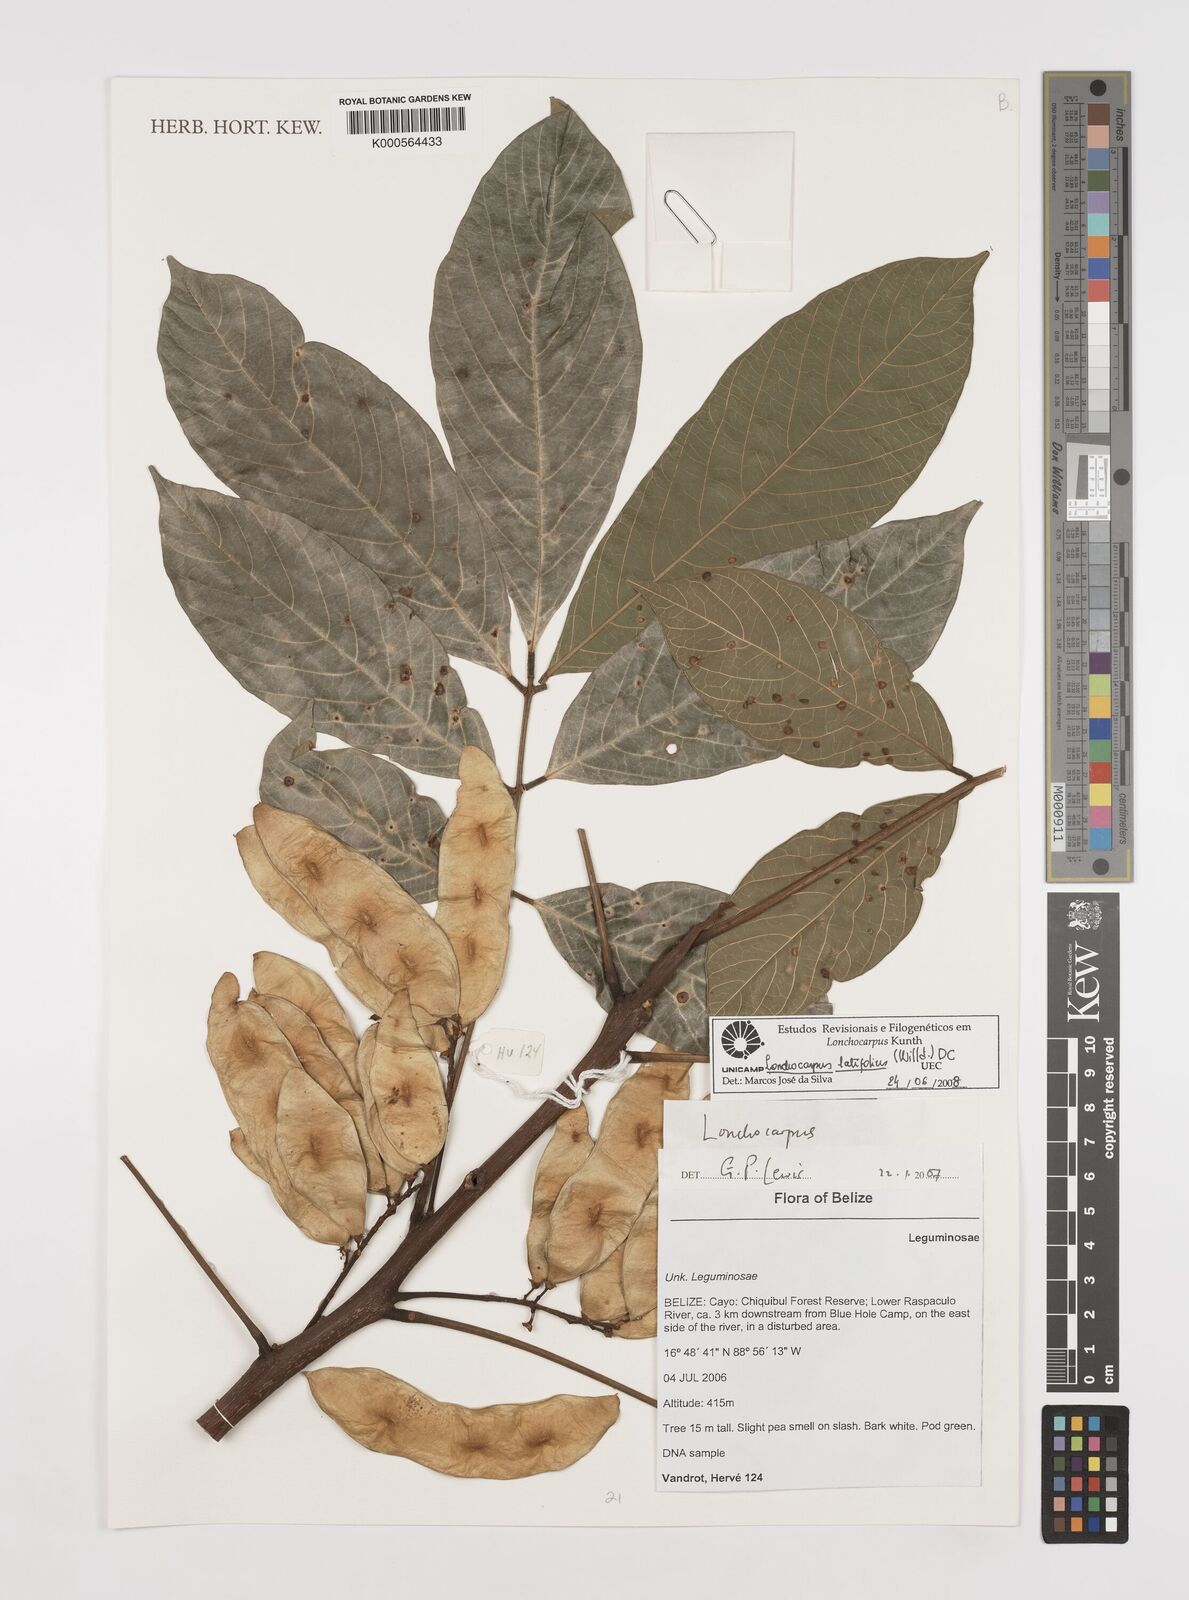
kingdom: Plantae
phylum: Tracheophyta
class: Magnoliopsida
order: Fabales
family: Fabaceae
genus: Lonchocarpus
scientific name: Lonchocarpus heptaphyllus
